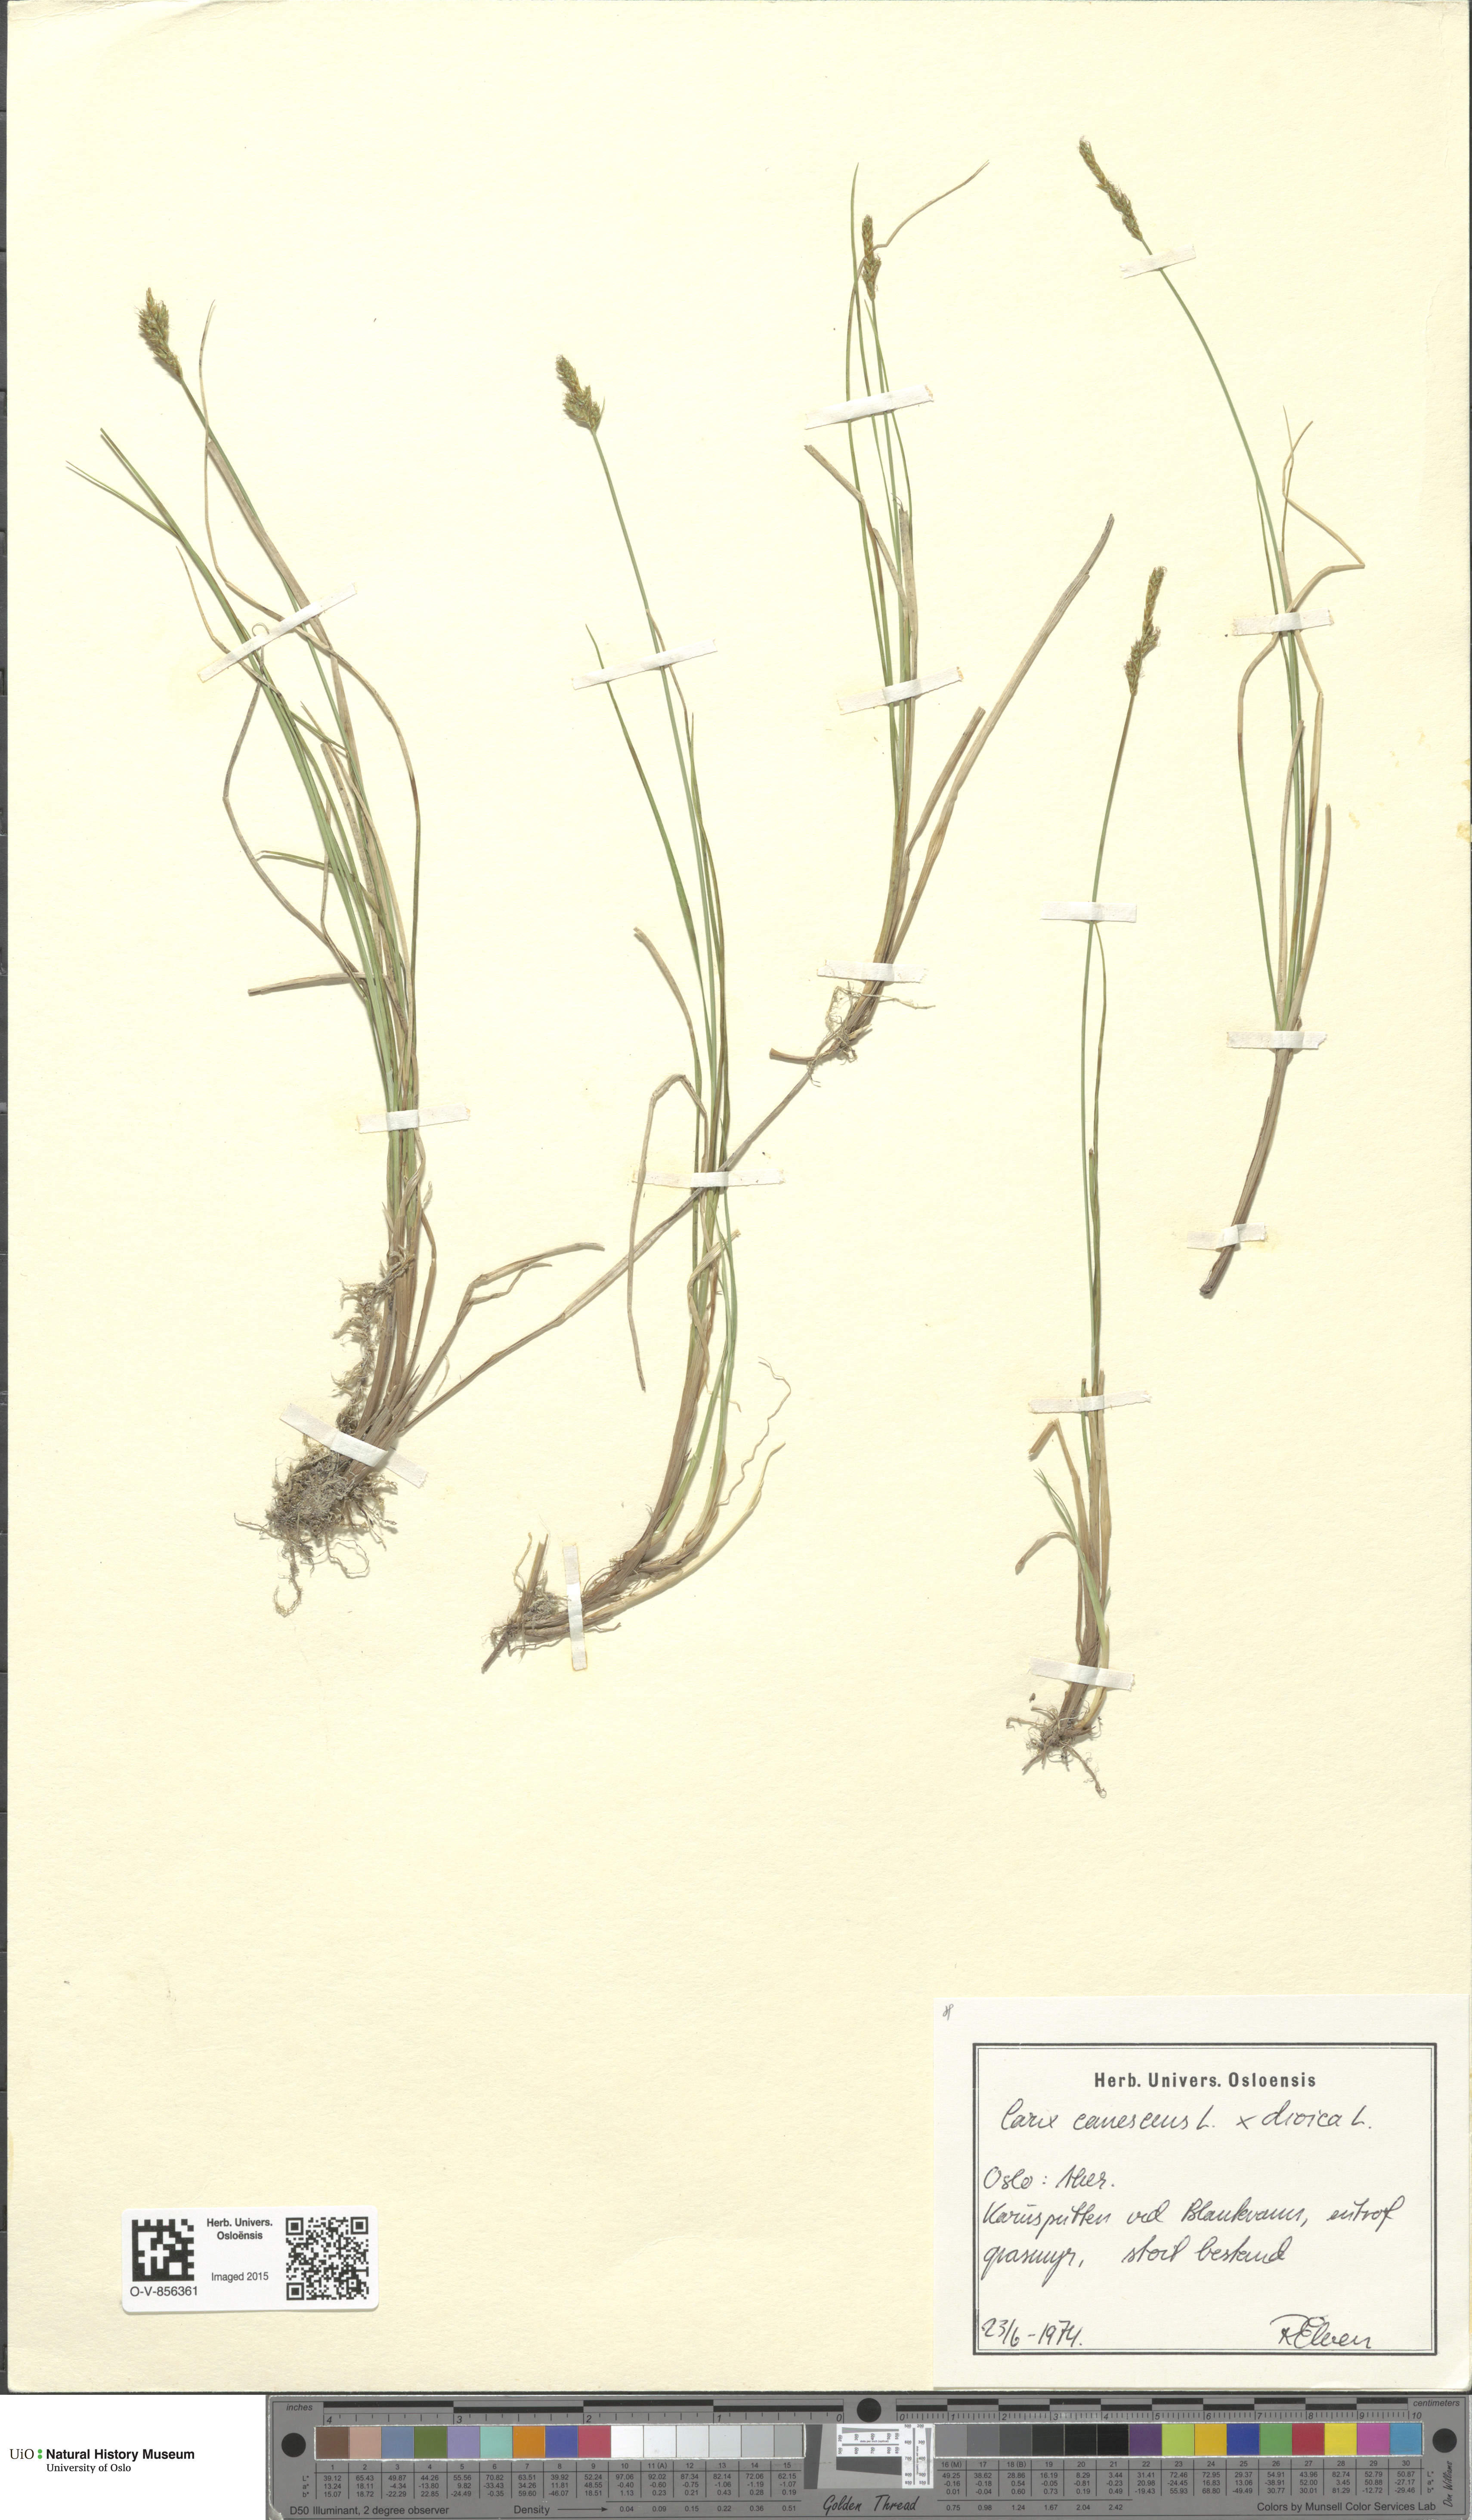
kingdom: Plantae
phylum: Tracheophyta
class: Liliopsida
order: Poales
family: Cyperaceae
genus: Carex
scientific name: Carex
